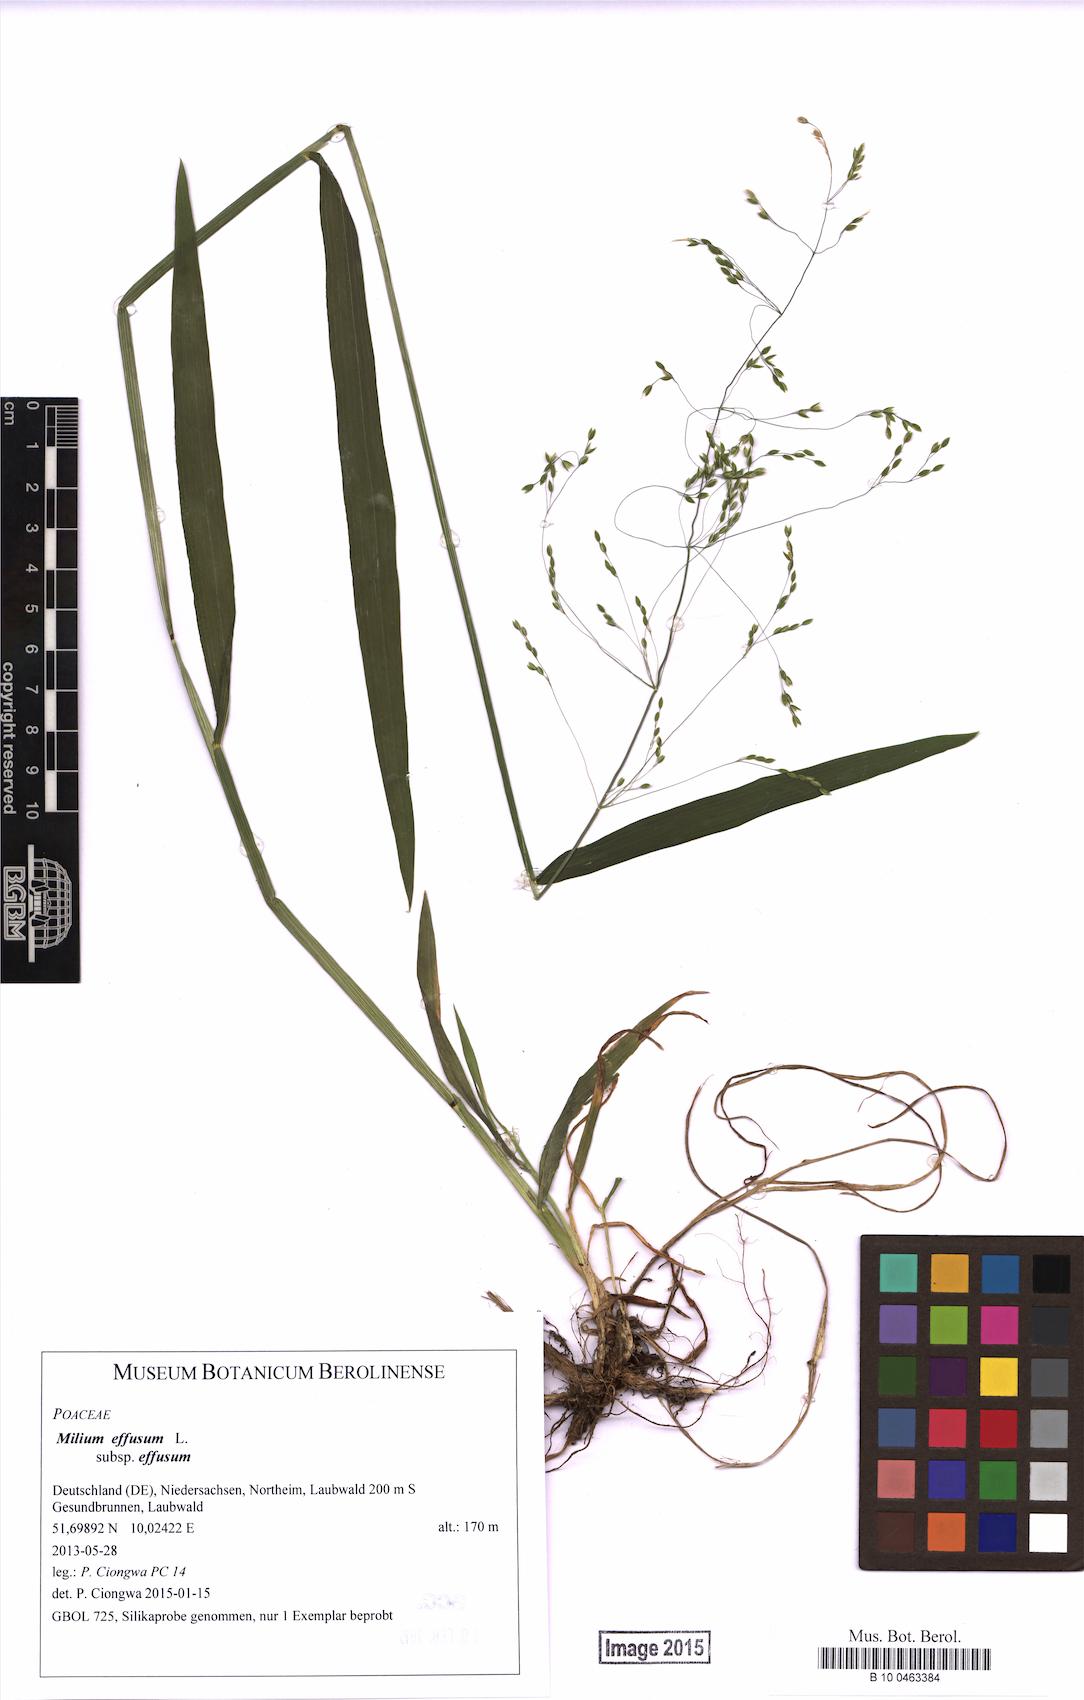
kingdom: Plantae
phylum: Tracheophyta
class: Liliopsida
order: Poales
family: Poaceae
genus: Milium
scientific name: Milium effusum
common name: Wood millet
